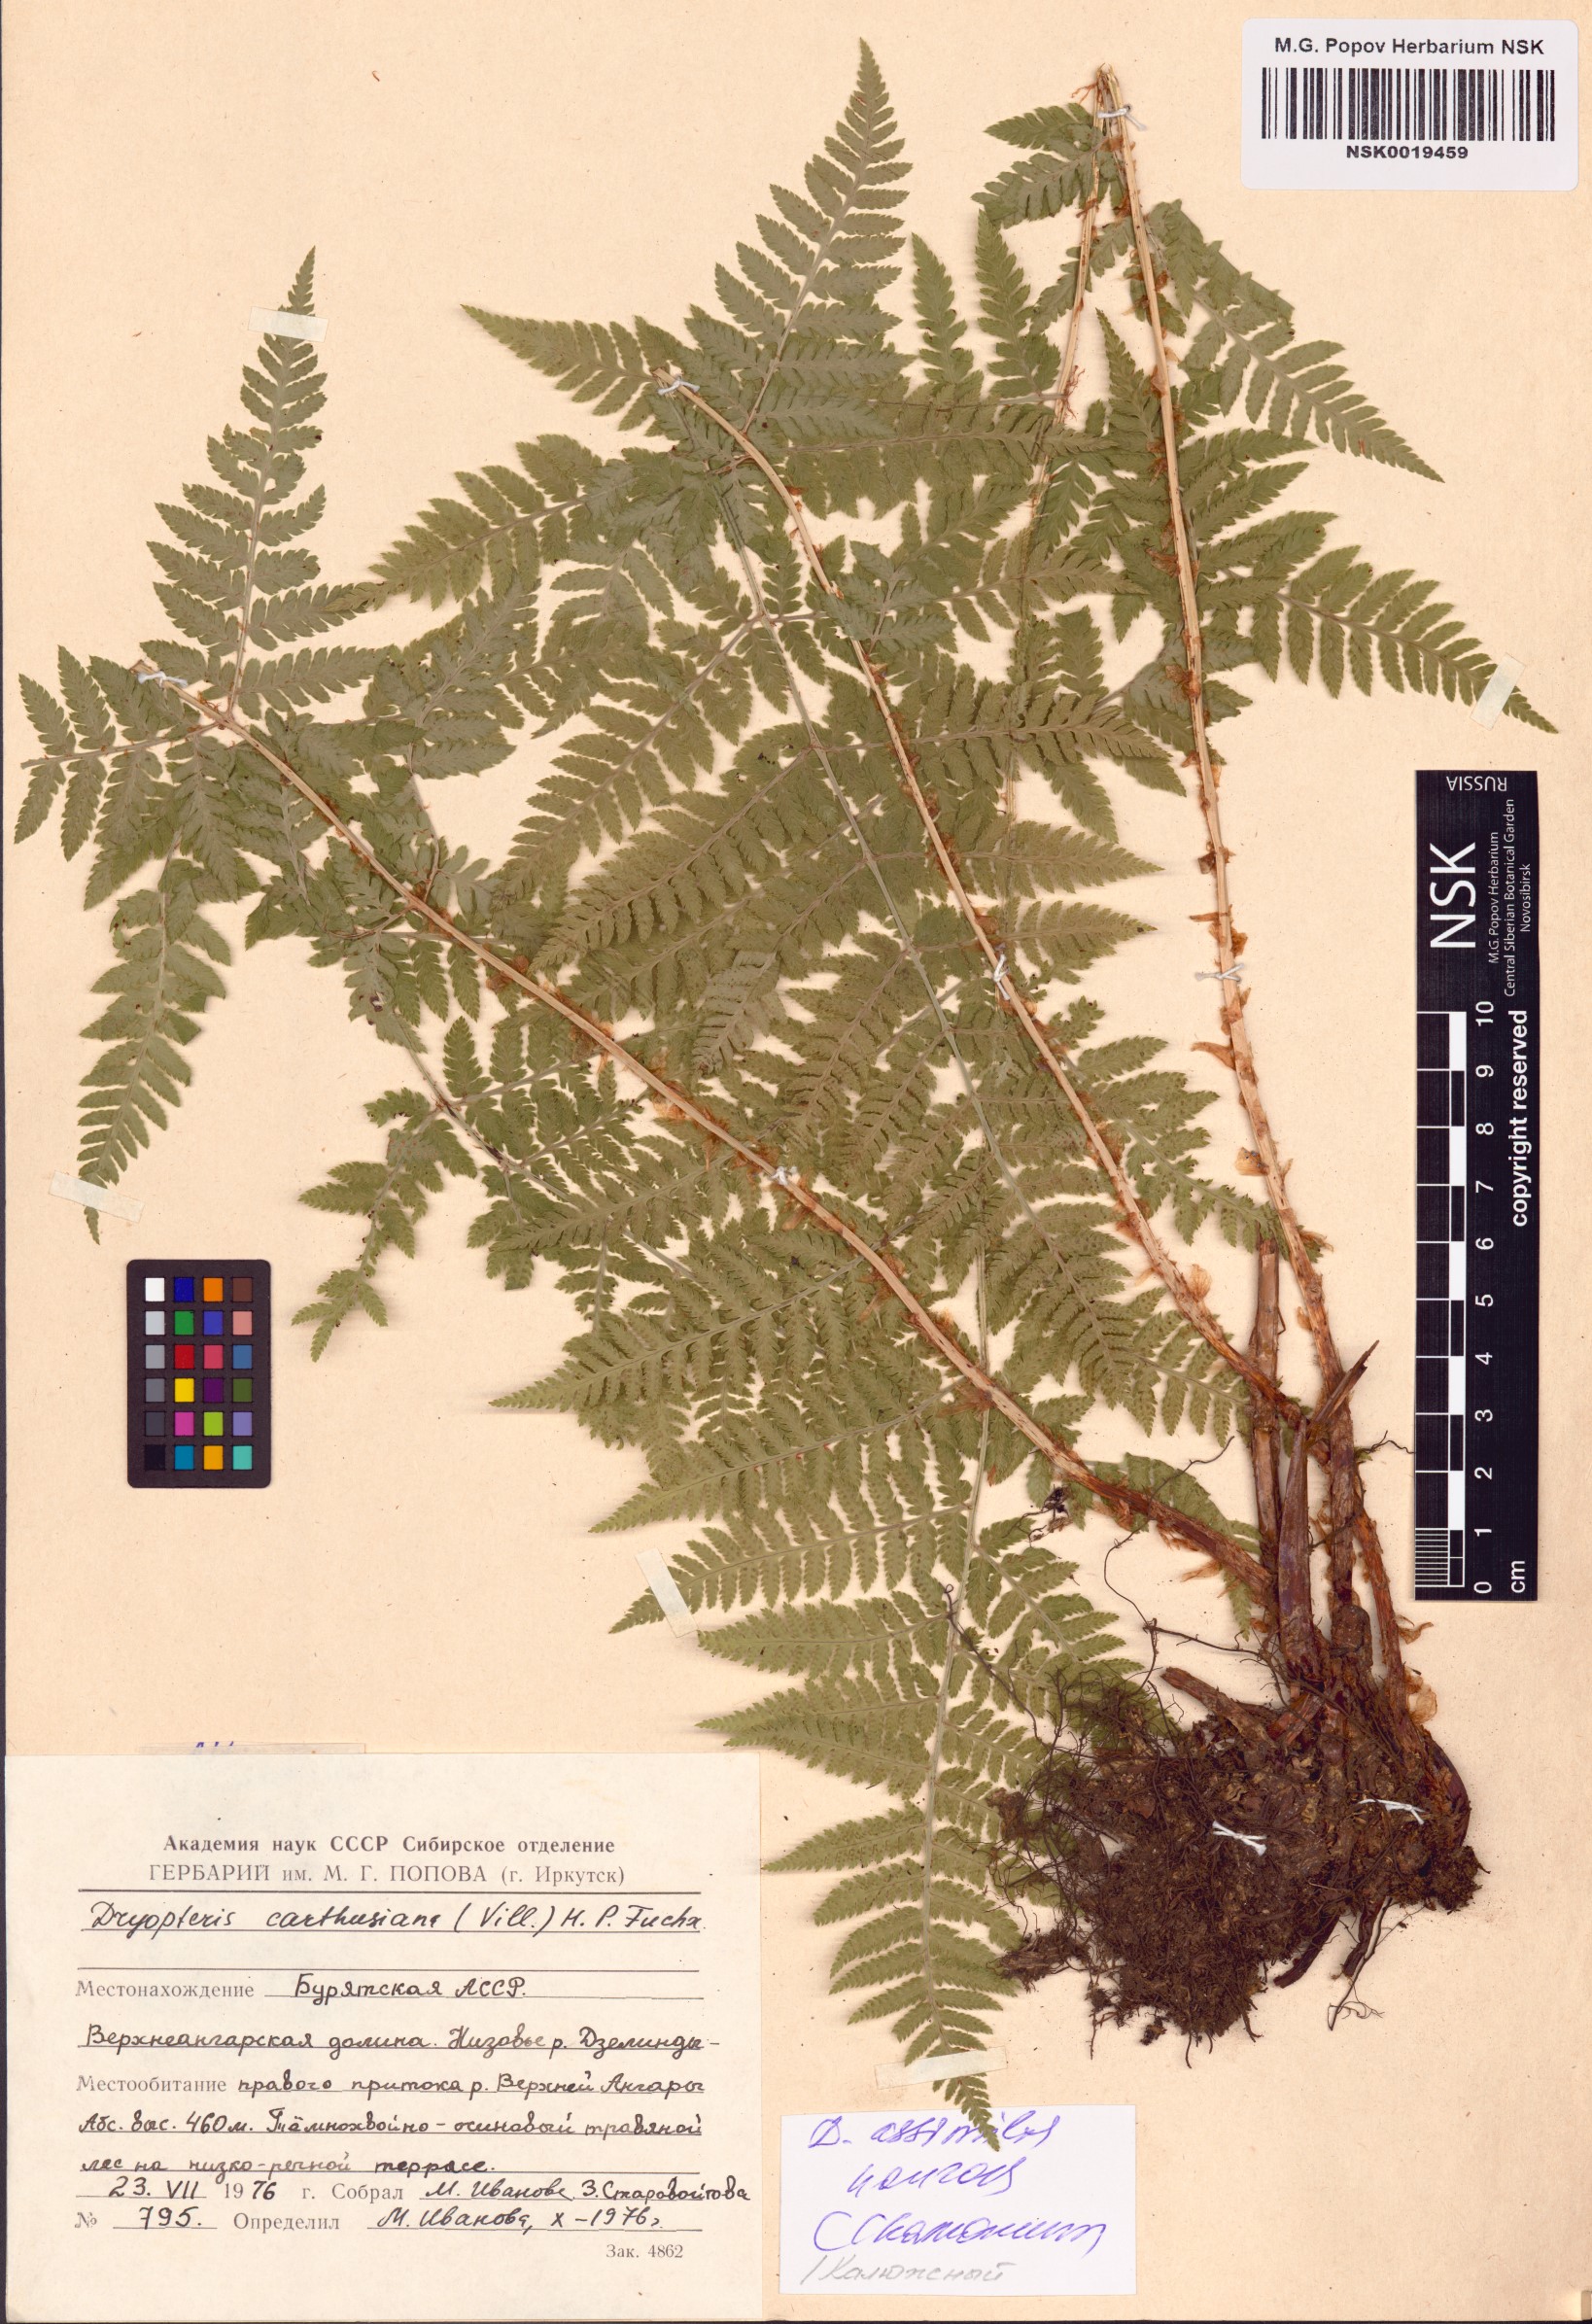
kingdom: Plantae
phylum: Tracheophyta
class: Polypodiopsida
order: Polypodiales
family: Dryopteridaceae
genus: Dryopteris
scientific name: Dryopteris expansa
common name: Northern buckler fern
